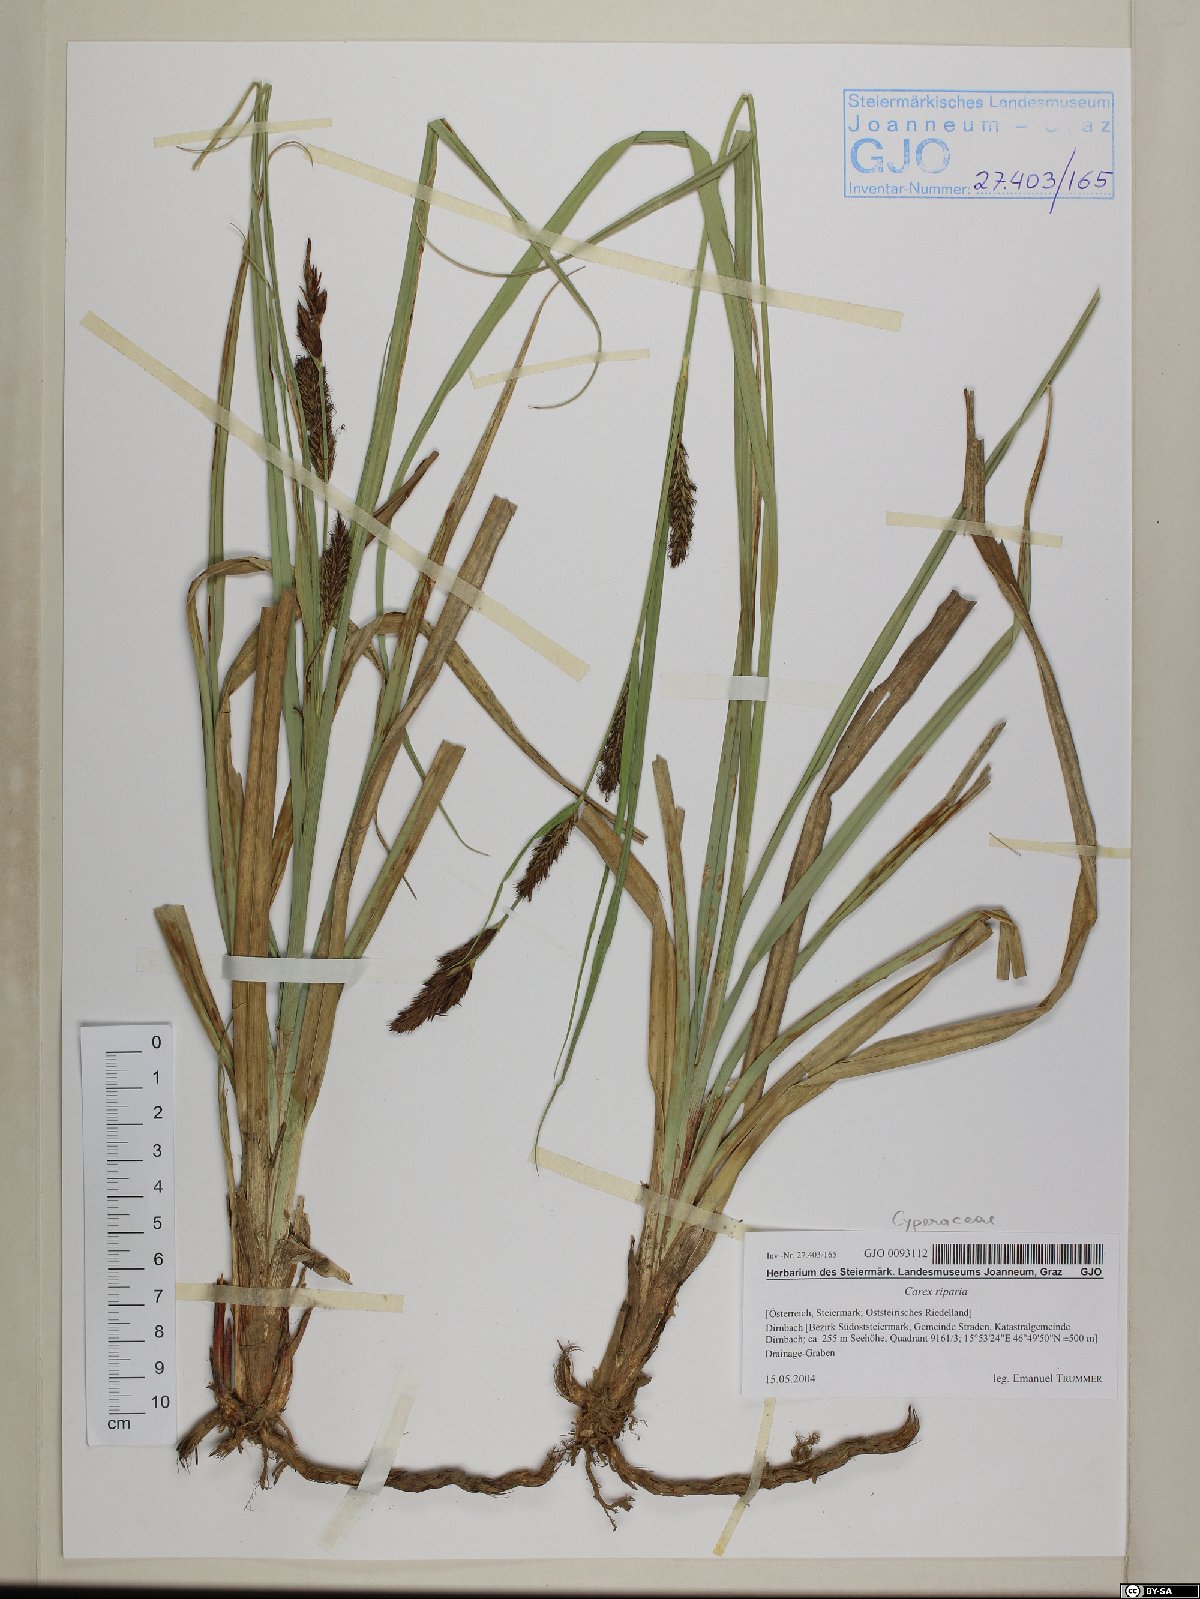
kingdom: Plantae
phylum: Tracheophyta
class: Liliopsida
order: Poales
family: Cyperaceae
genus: Carex
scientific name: Carex riparia
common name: Greater pond-sedge
